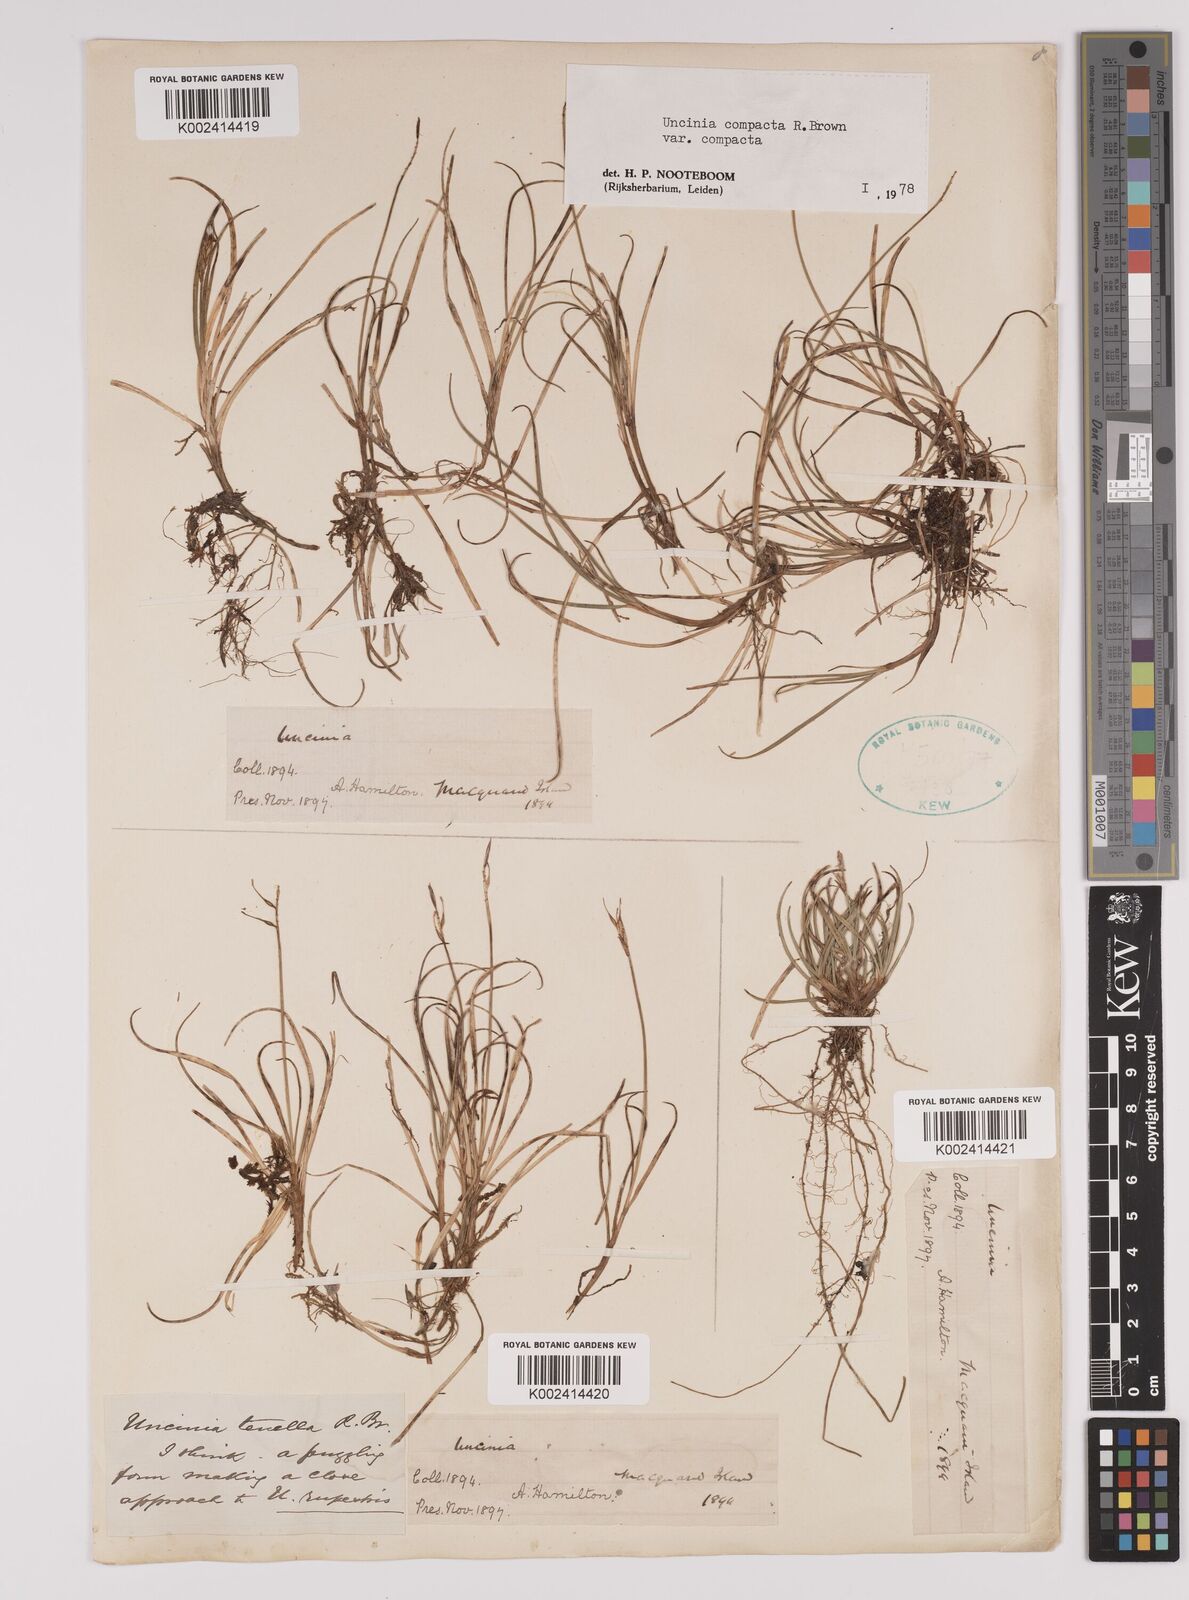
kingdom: Plantae
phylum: Tracheophyta
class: Liliopsida
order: Poales
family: Cyperaceae
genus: Carex
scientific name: Carex austrocompacta
